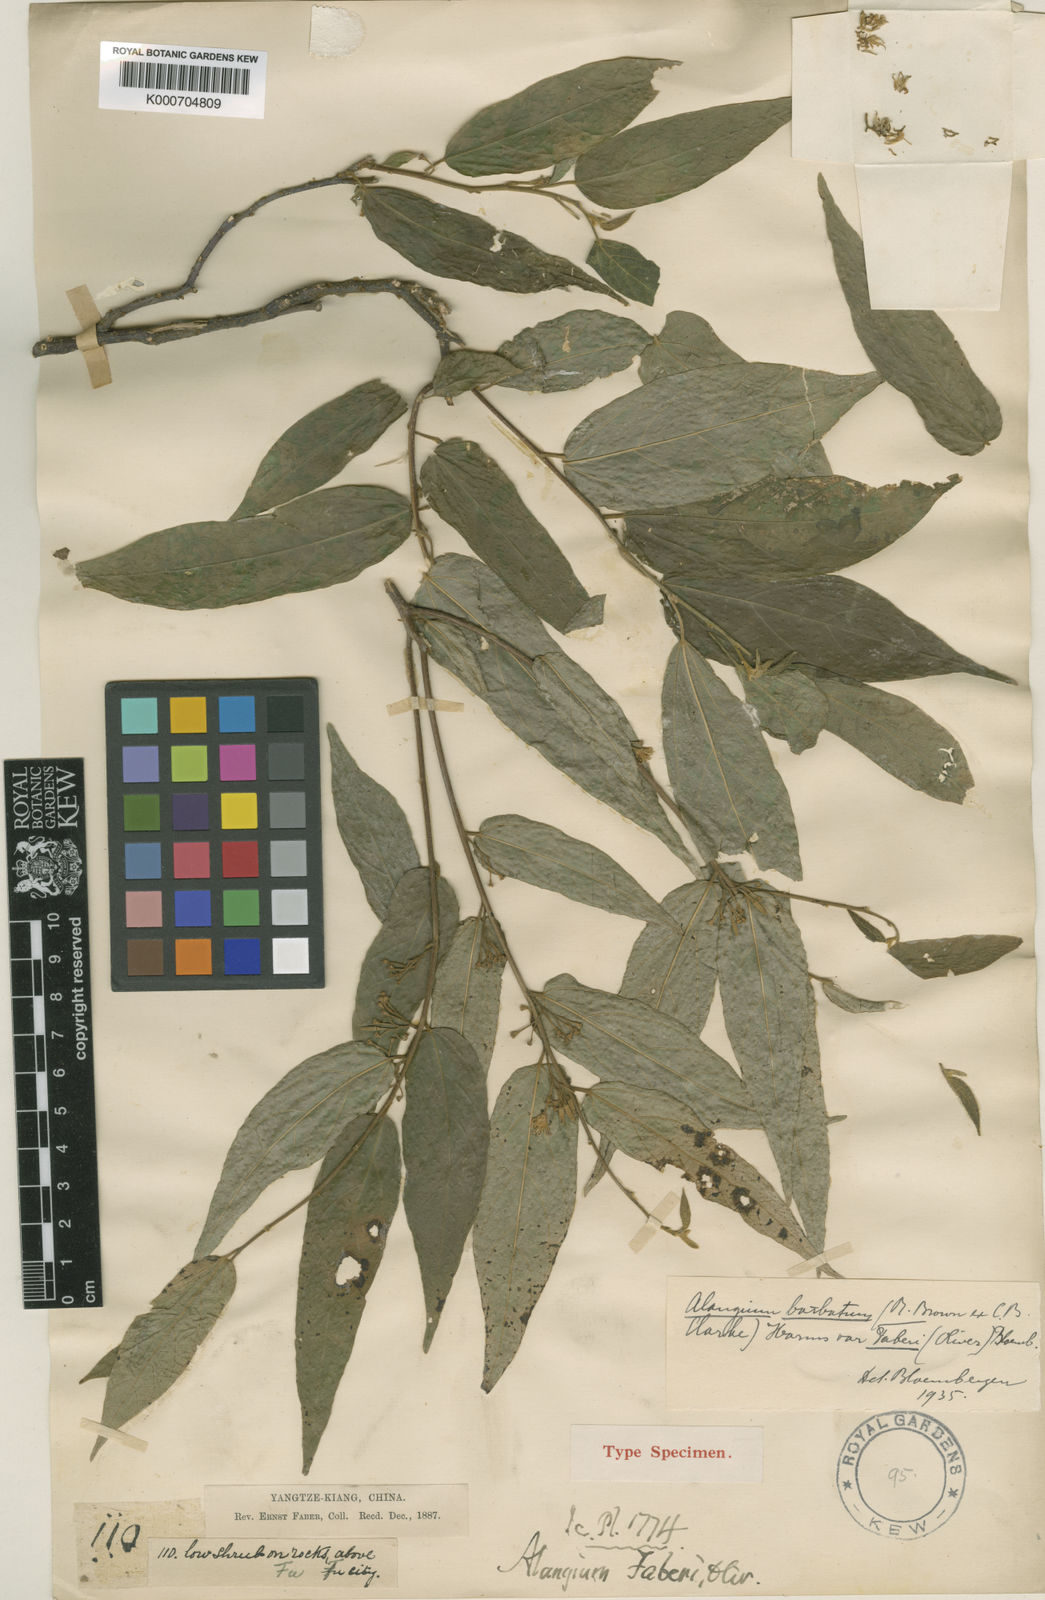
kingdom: Plantae
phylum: Tracheophyta
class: Magnoliopsida
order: Cornales
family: Cornaceae
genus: Alangium
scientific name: Alangium
